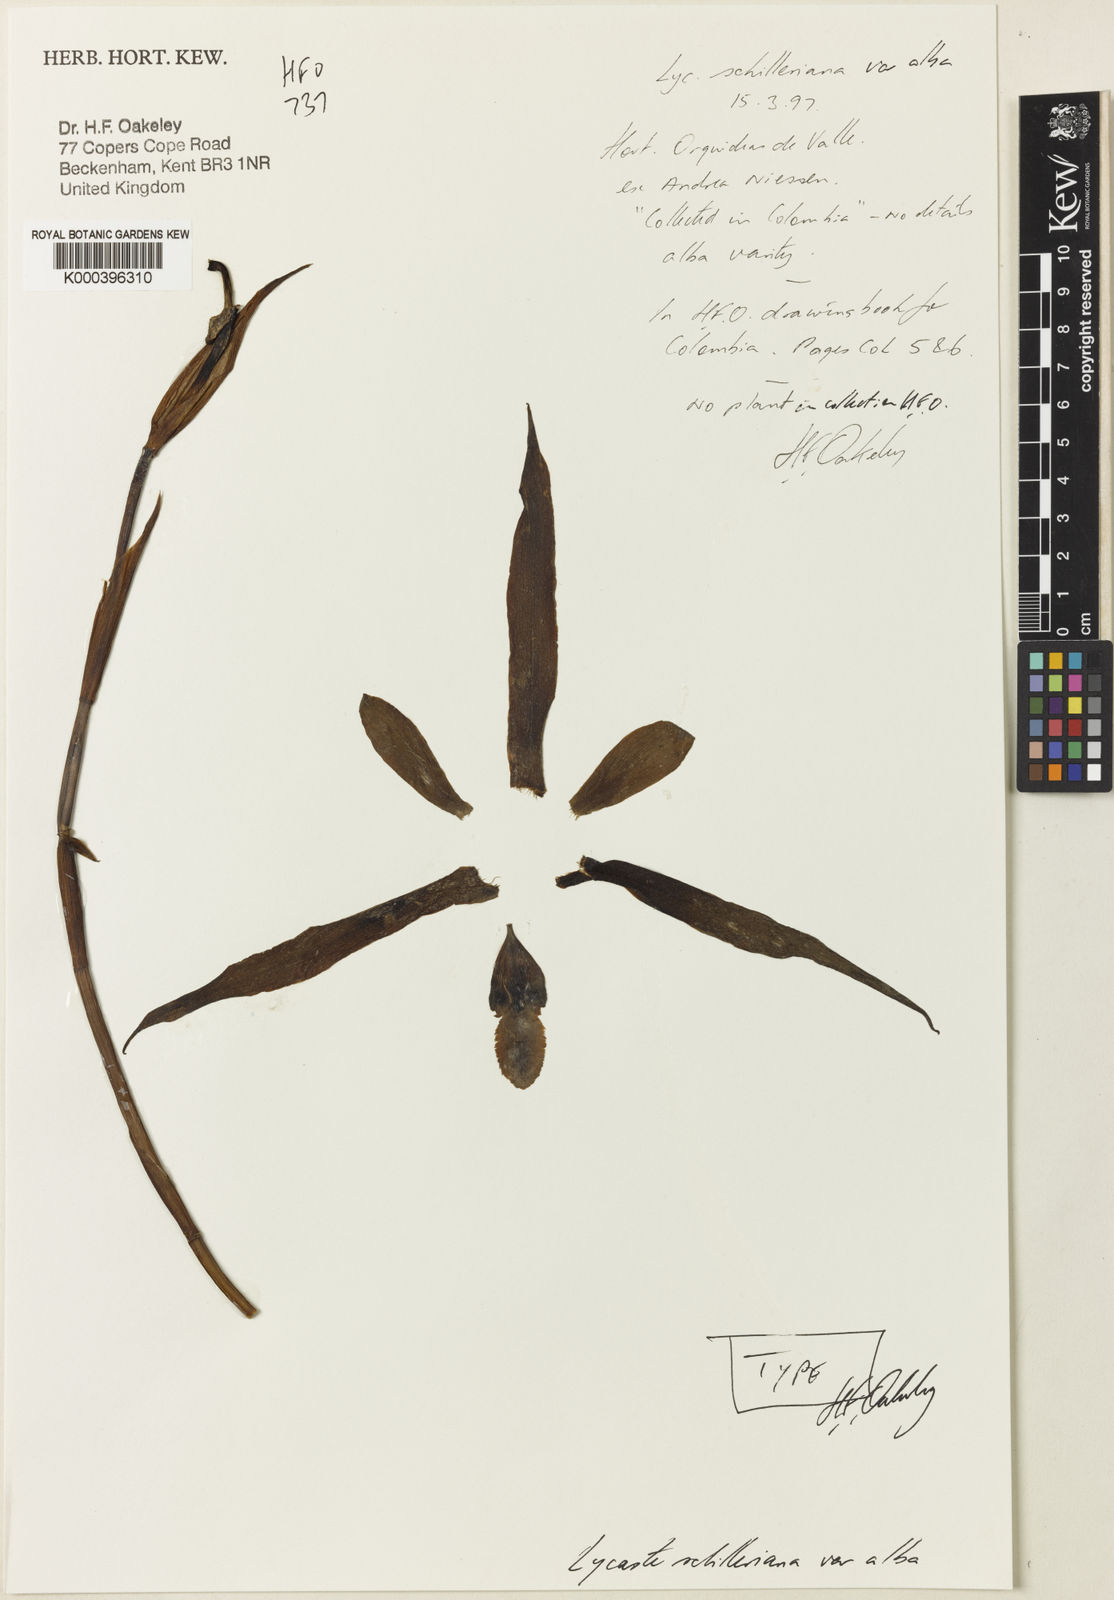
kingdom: Plantae
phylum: Tracheophyta
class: Liliopsida
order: Asparagales
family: Orchidaceae
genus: Lycaste
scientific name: Lycaste schilleriana
